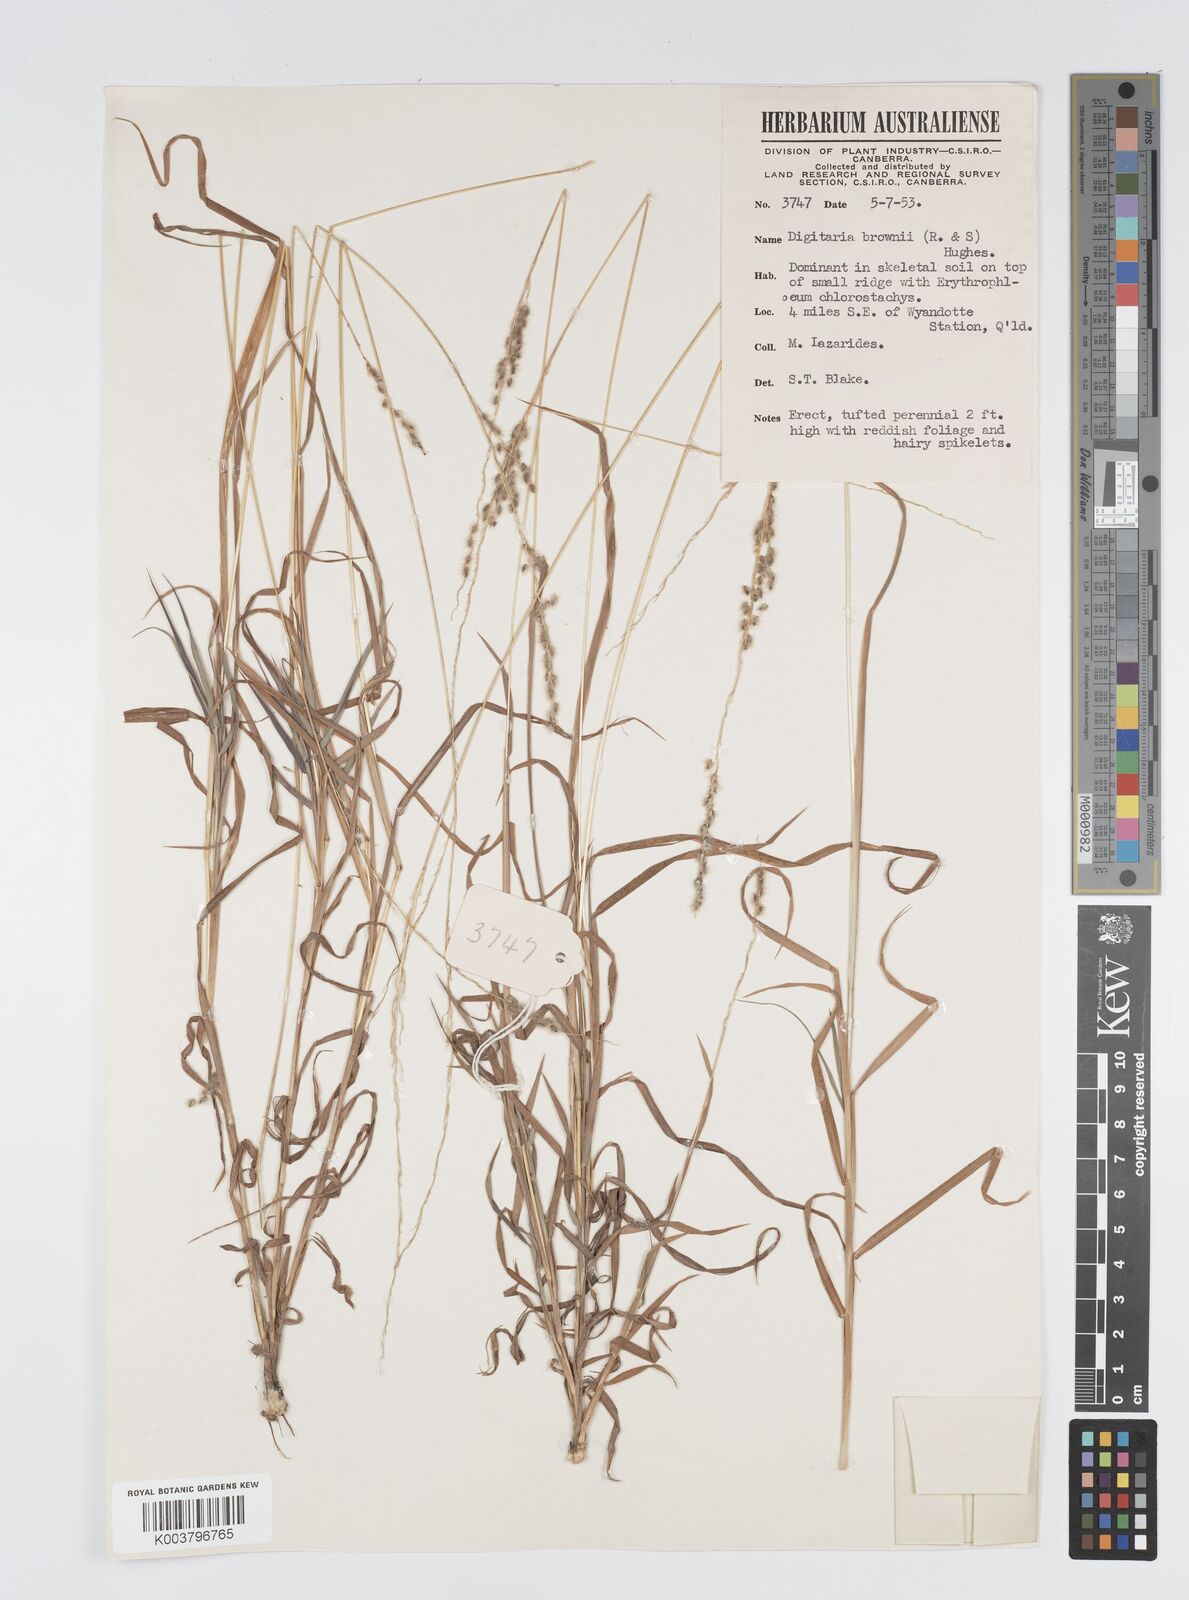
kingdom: Plantae
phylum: Tracheophyta
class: Liliopsida
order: Poales
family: Poaceae
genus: Digitaria
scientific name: Digitaria brownii
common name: Cotton grass
